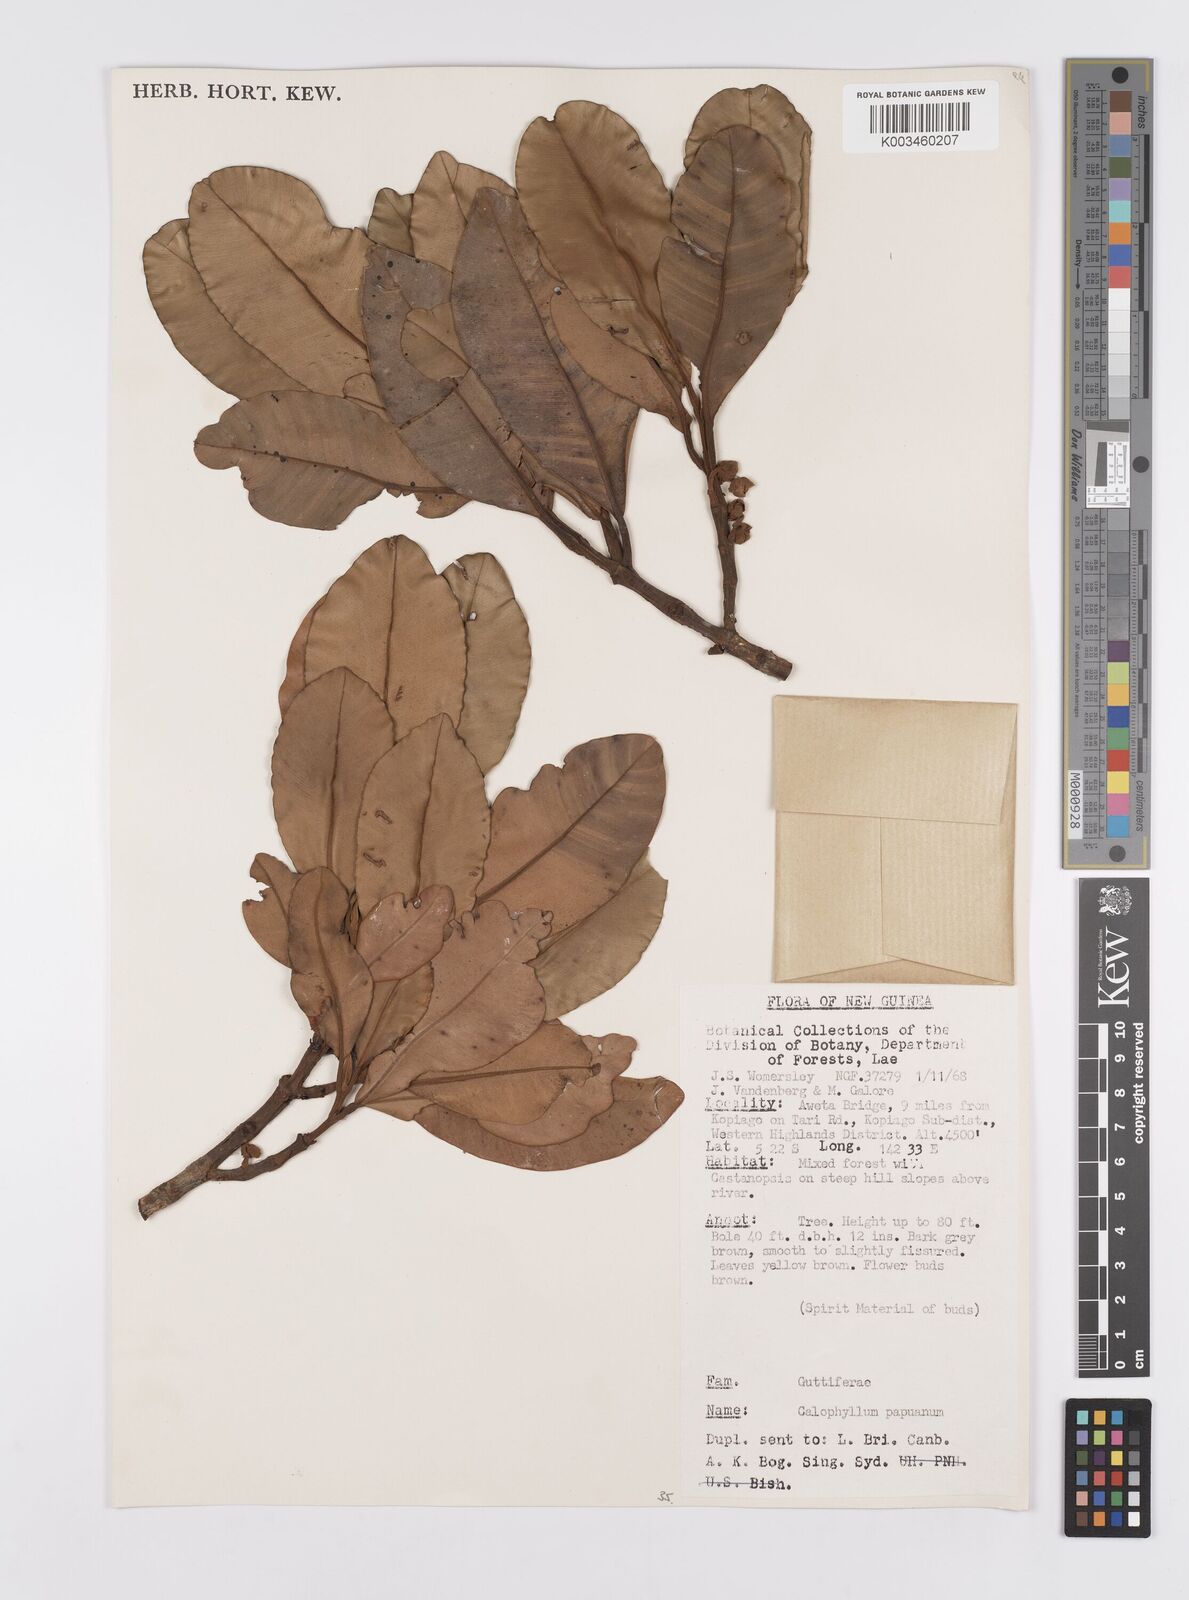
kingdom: Plantae
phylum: Tracheophyta
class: Magnoliopsida
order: Malpighiales
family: Calophyllaceae
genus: Calophyllum
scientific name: Calophyllum papuanum
